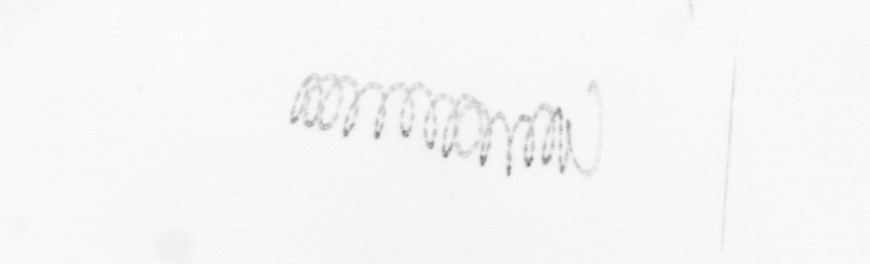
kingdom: Chromista
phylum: Ochrophyta
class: Bacillariophyceae
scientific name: Bacillariophyceae
